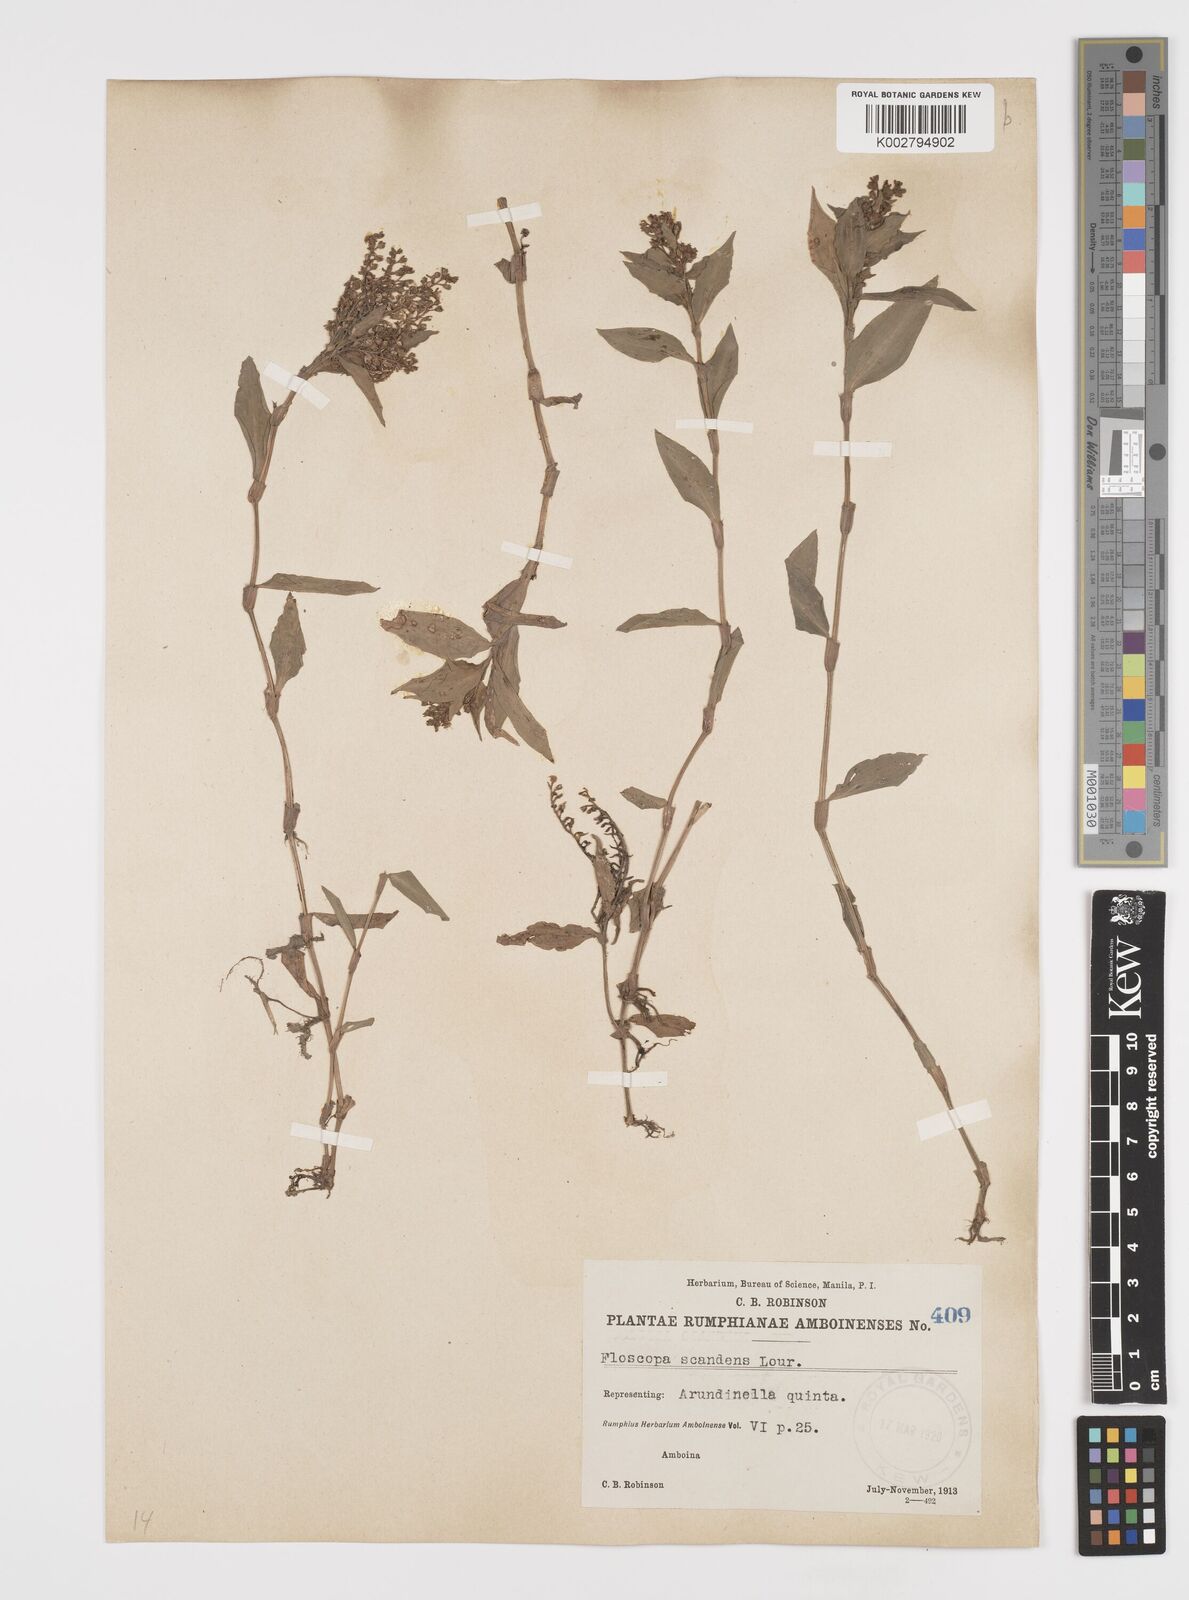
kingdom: Plantae
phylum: Tracheophyta
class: Liliopsida
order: Commelinales
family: Commelinaceae
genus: Floscopa
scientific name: Floscopa scandens
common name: Climbing flower cup
